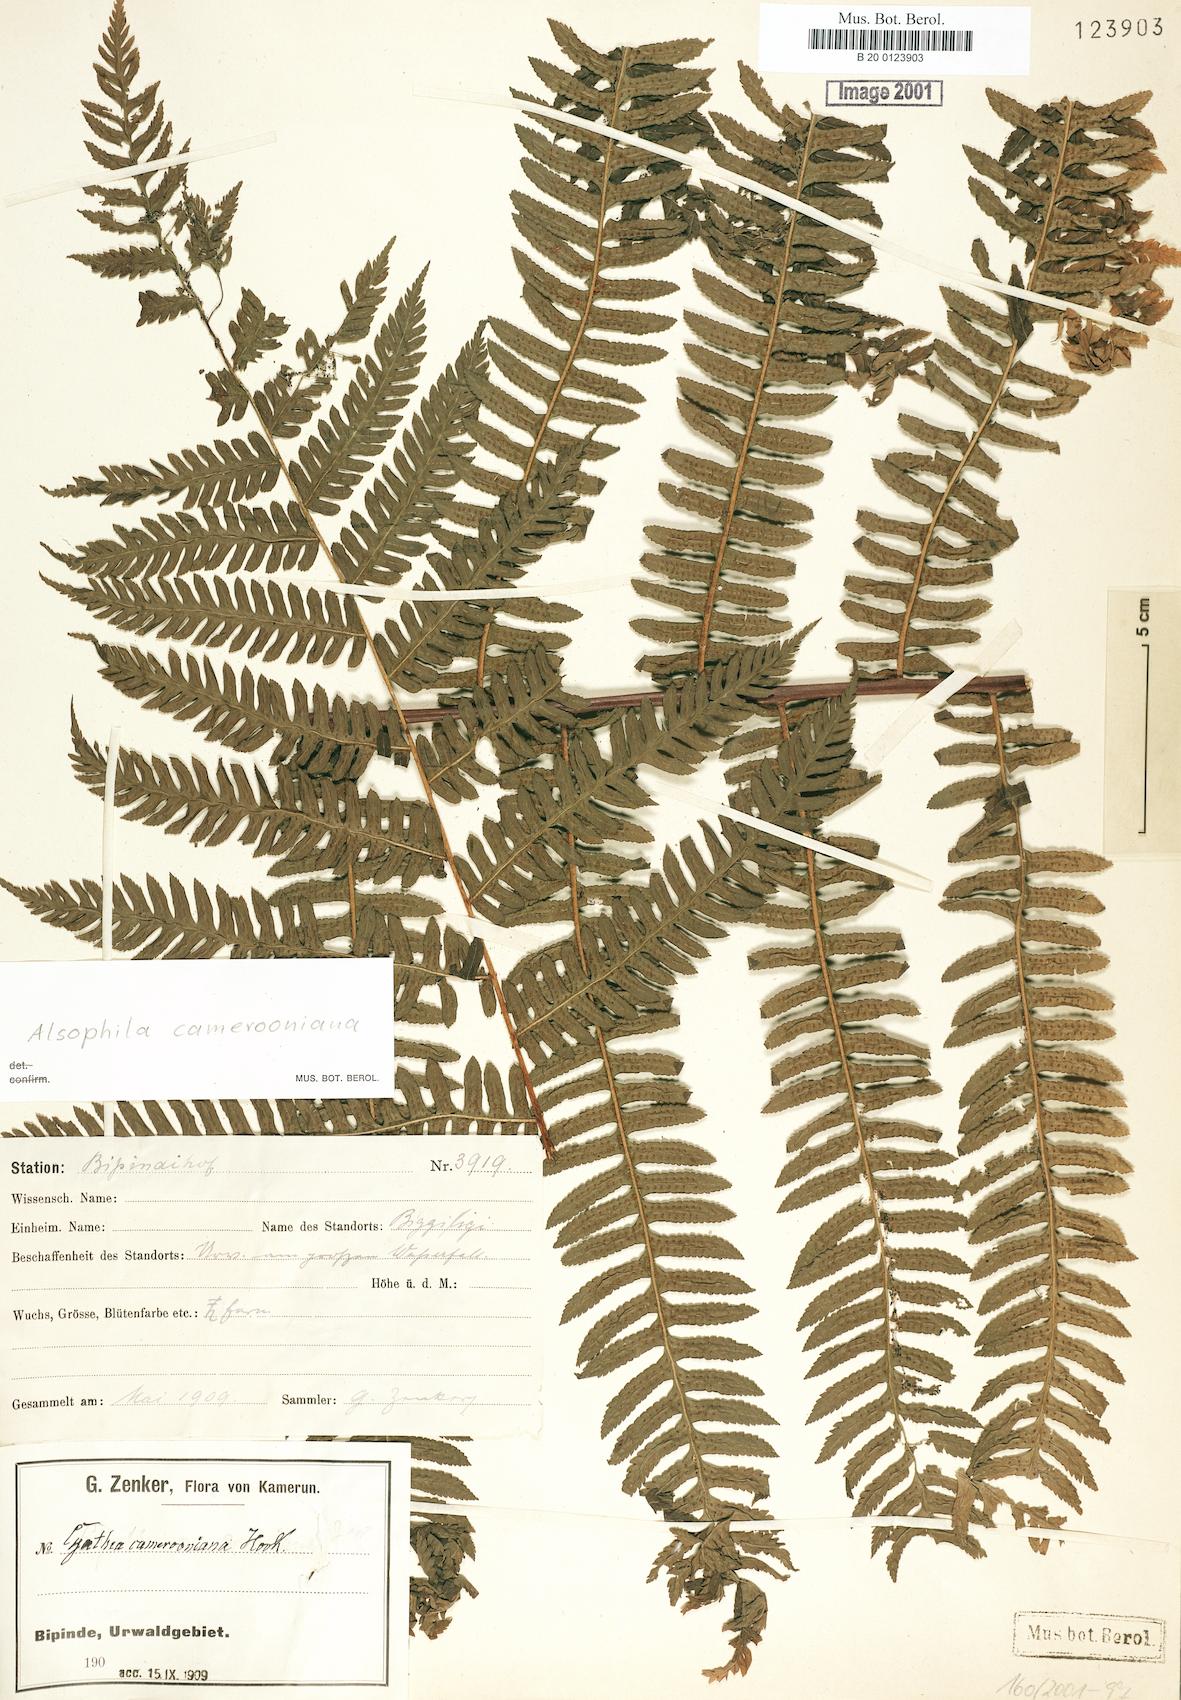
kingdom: Plantae
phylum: Tracheophyta
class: Polypodiopsida
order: Cyatheales
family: Cyatheaceae
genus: Alsophila
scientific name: Alsophila camerooniana
